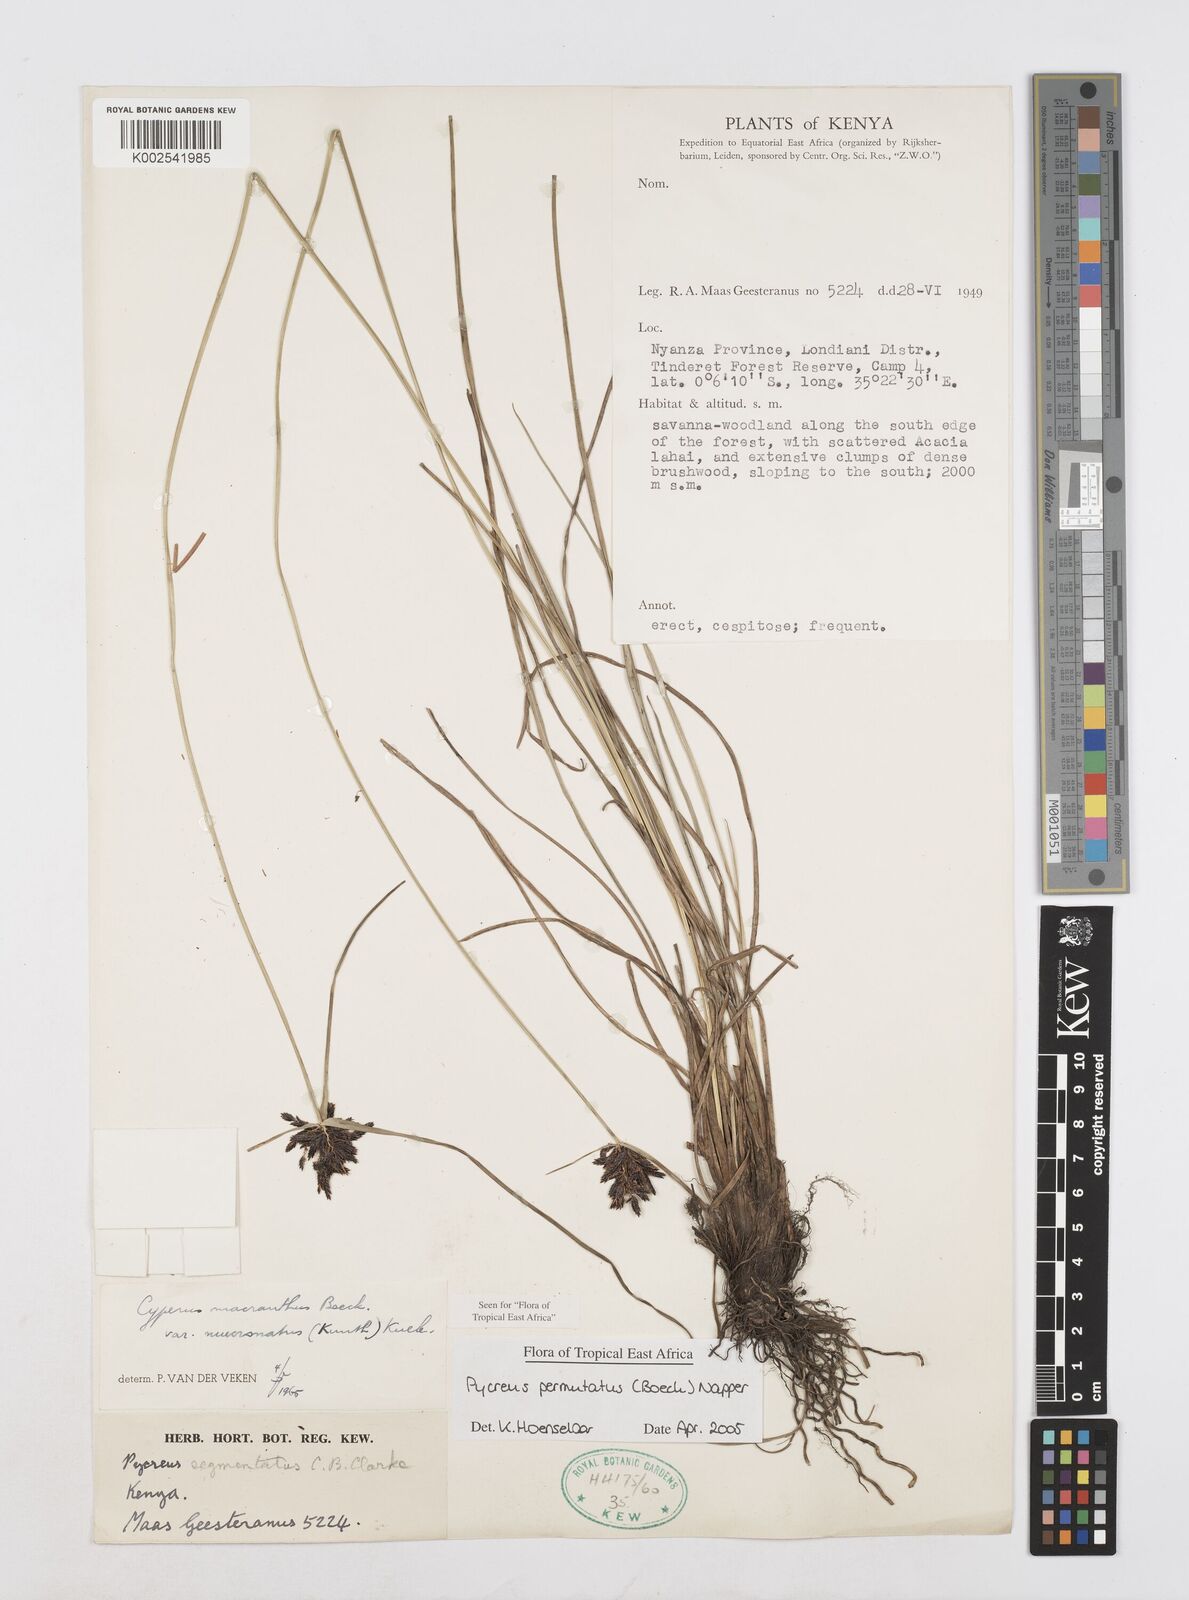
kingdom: Plantae
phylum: Tracheophyta
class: Liliopsida
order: Poales
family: Cyperaceae
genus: Cyperus
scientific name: Cyperus nigricans
